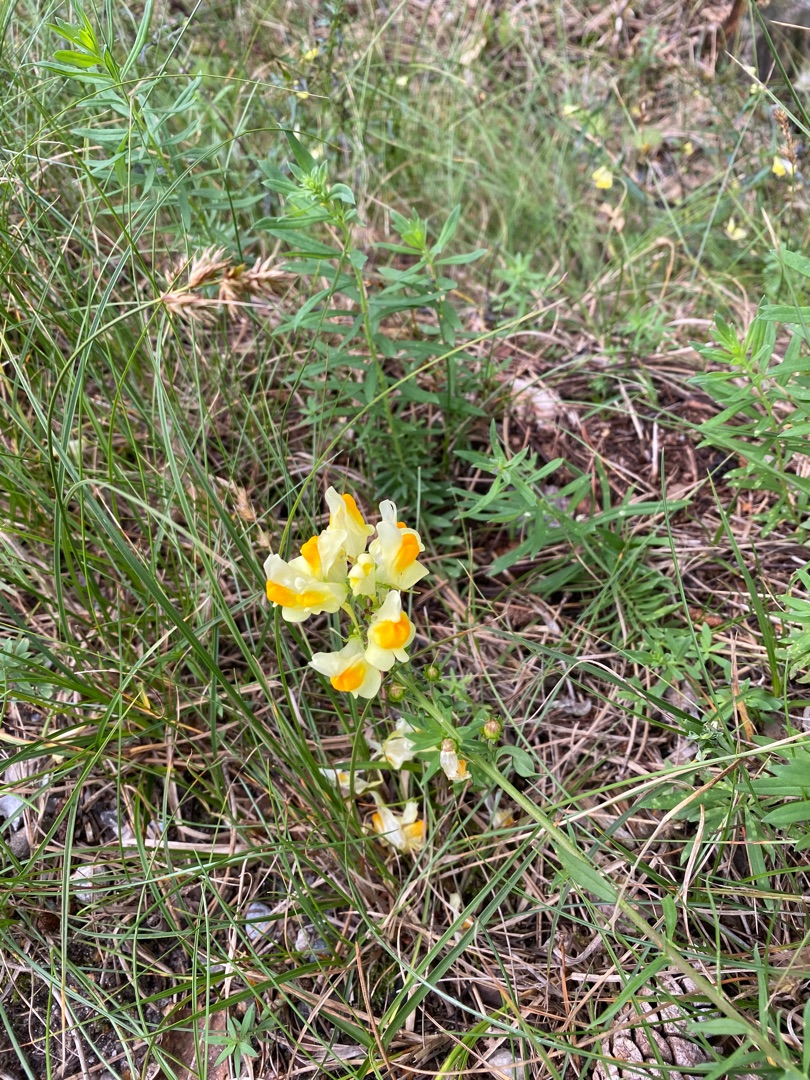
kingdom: Plantae
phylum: Tracheophyta
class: Magnoliopsida
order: Lamiales
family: Plantaginaceae
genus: Linaria
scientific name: Linaria vulgaris
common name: Almindelig torskemund
